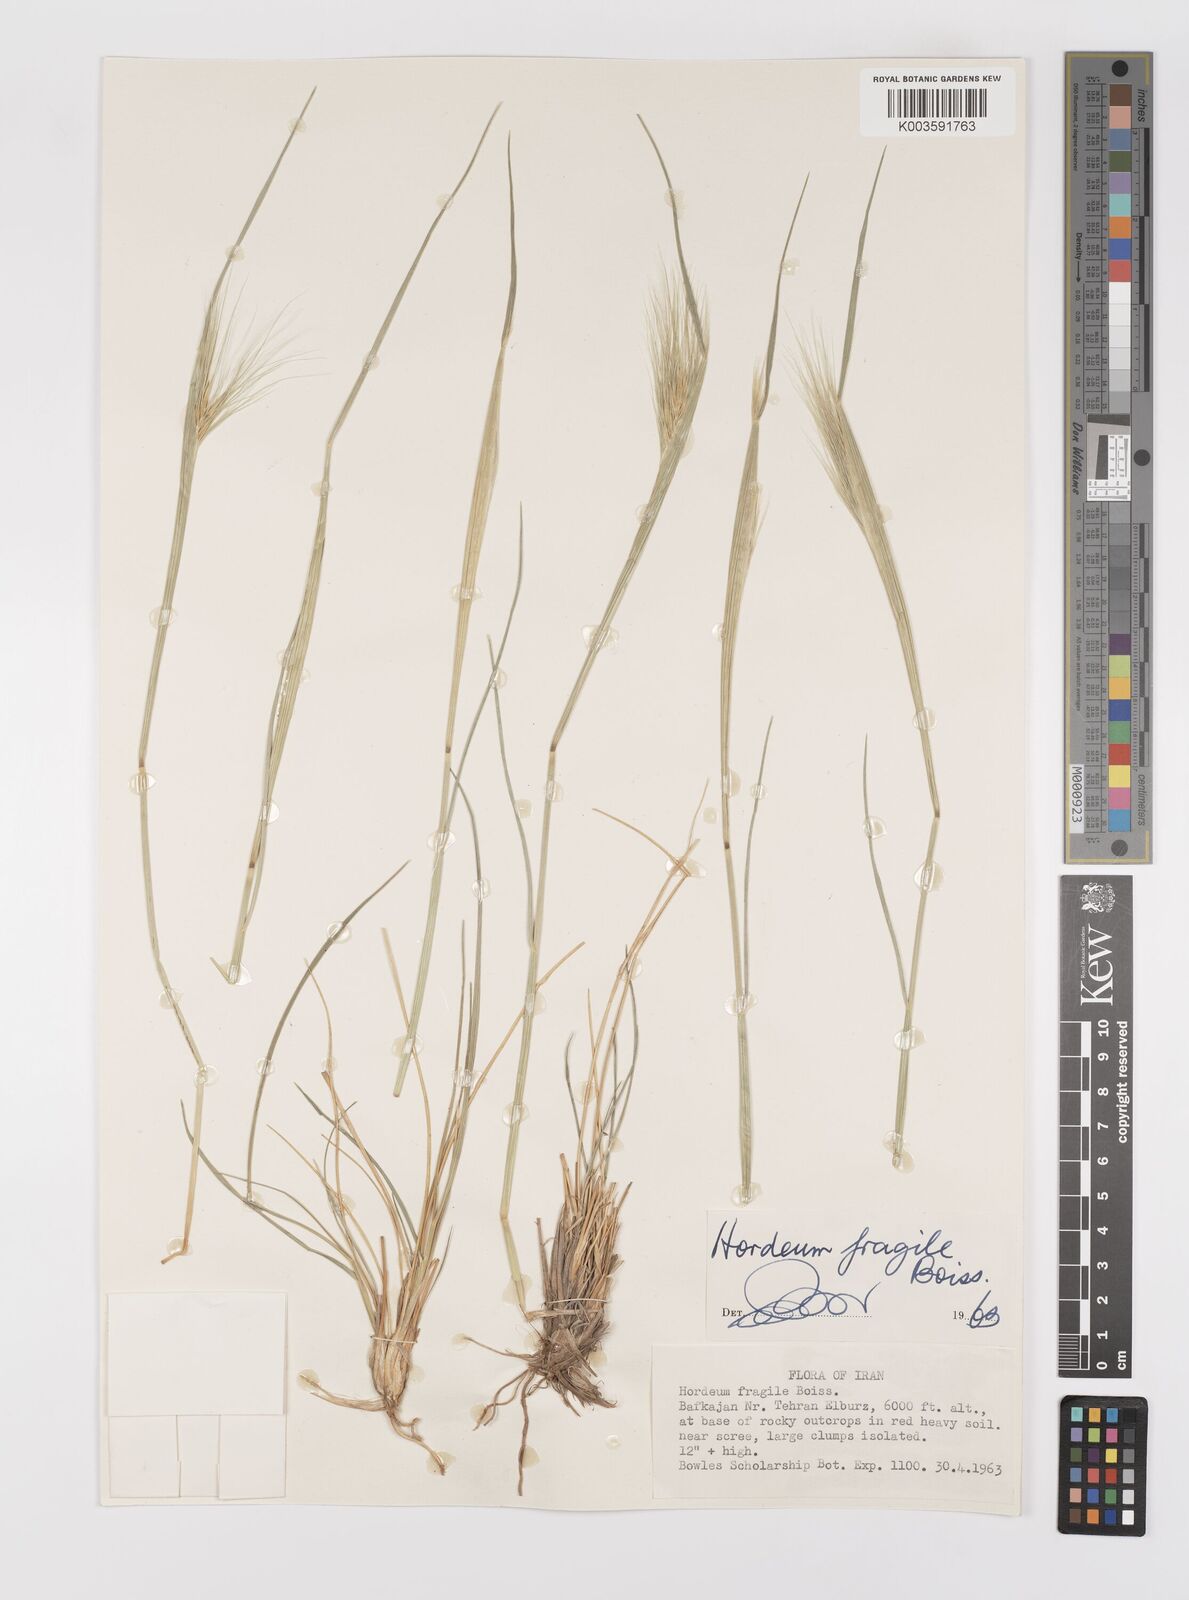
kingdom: Plantae
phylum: Tracheophyta
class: Liliopsida
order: Poales
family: Poaceae
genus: Psathyrostachys
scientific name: Psathyrostachys fragilis
